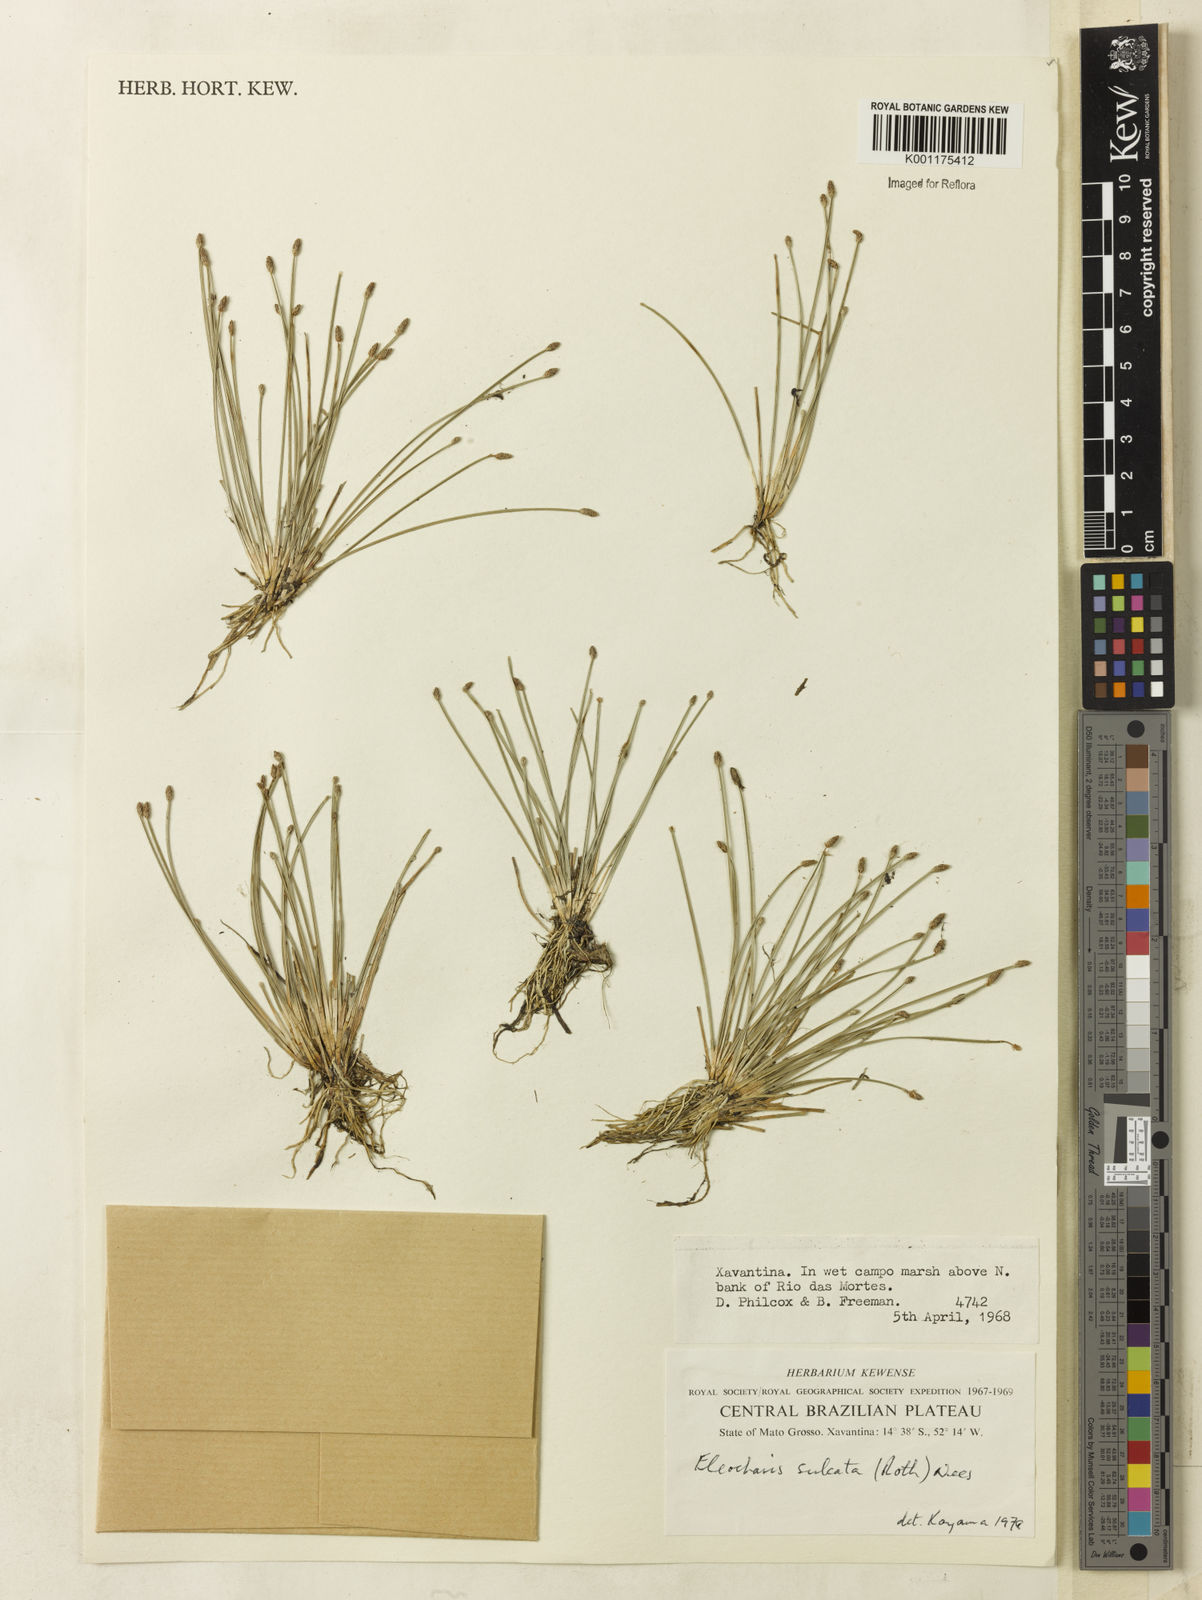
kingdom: Plantae
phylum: Tracheophyta
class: Liliopsida
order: Poales
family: Cyperaceae
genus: Eleocharis
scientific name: Eleocharis filiculmis
